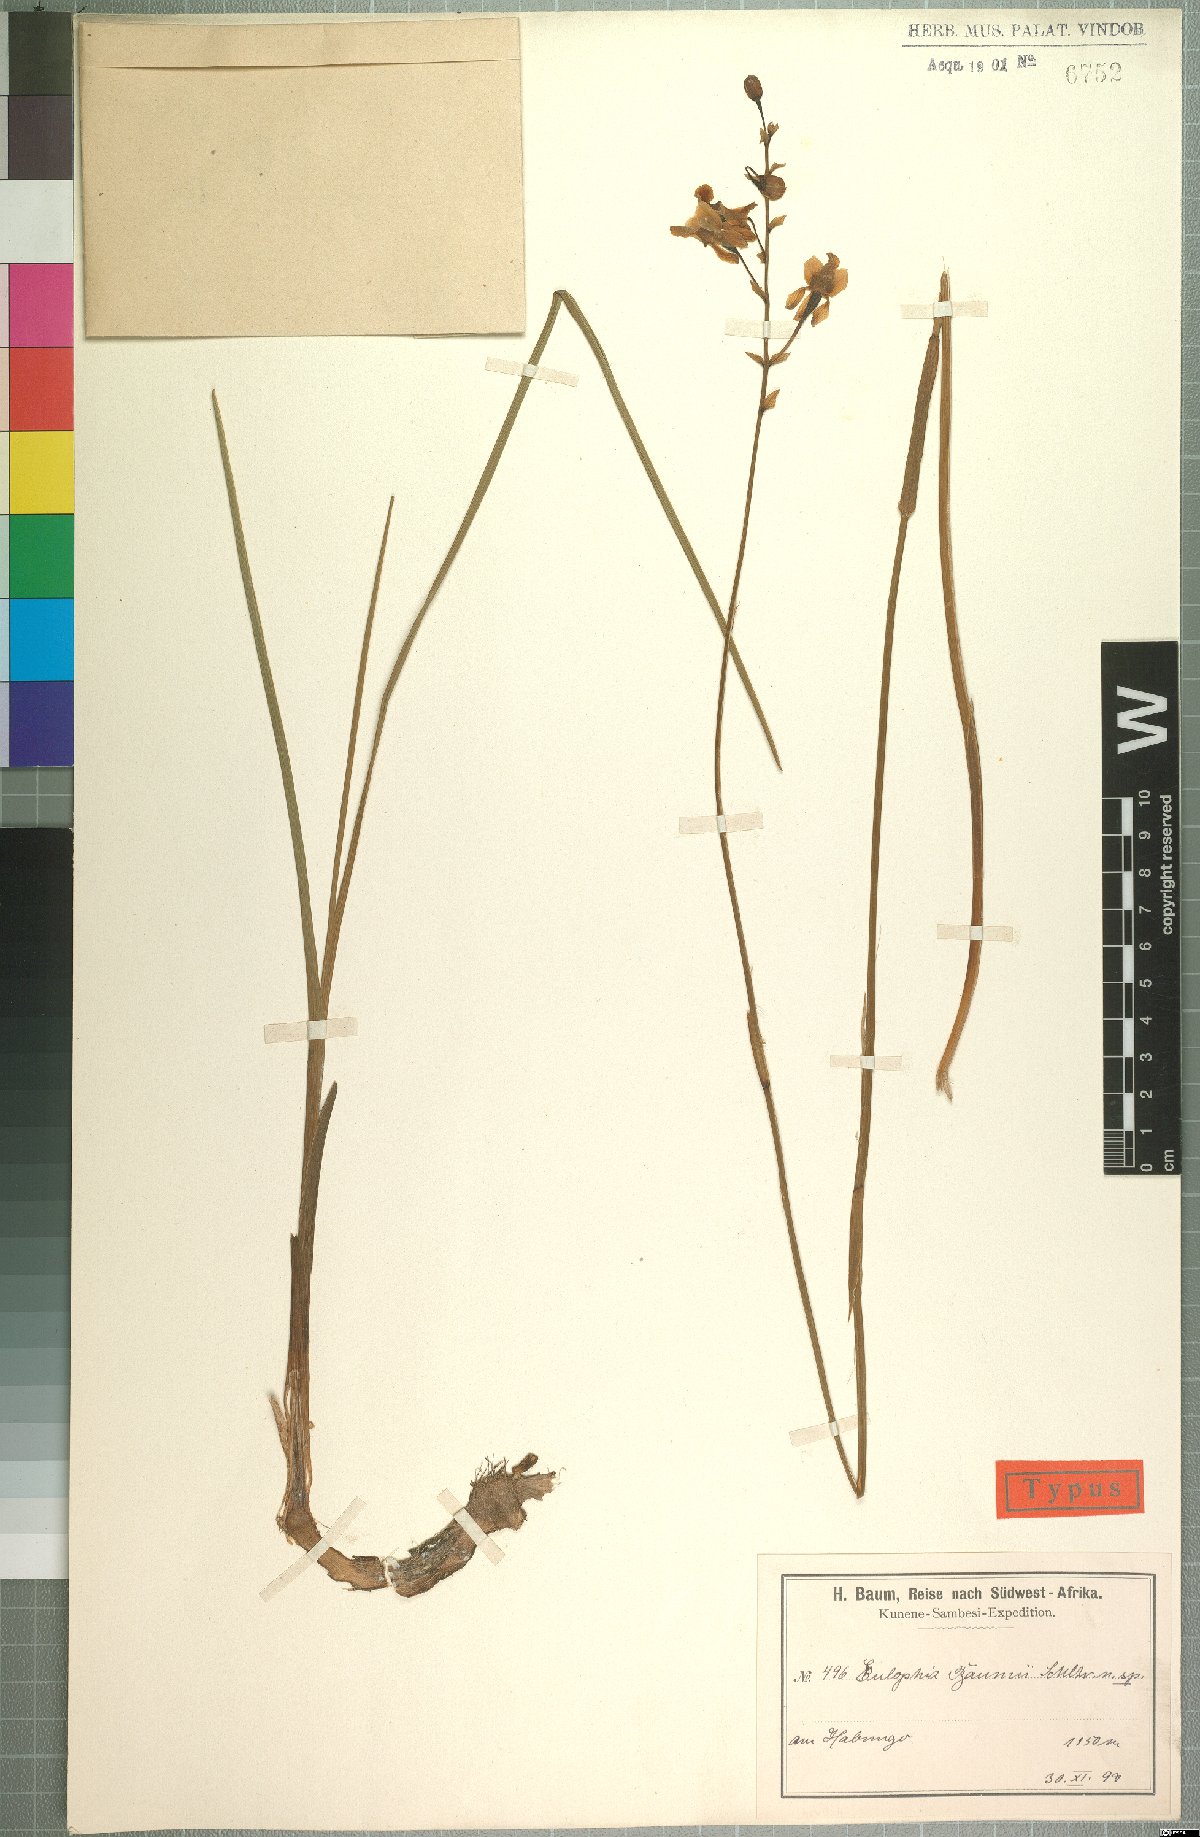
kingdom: Plantae
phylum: Tracheophyta
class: Liliopsida
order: Asparagales
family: Orchidaceae
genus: Eulophia
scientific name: Eulophia malangana
